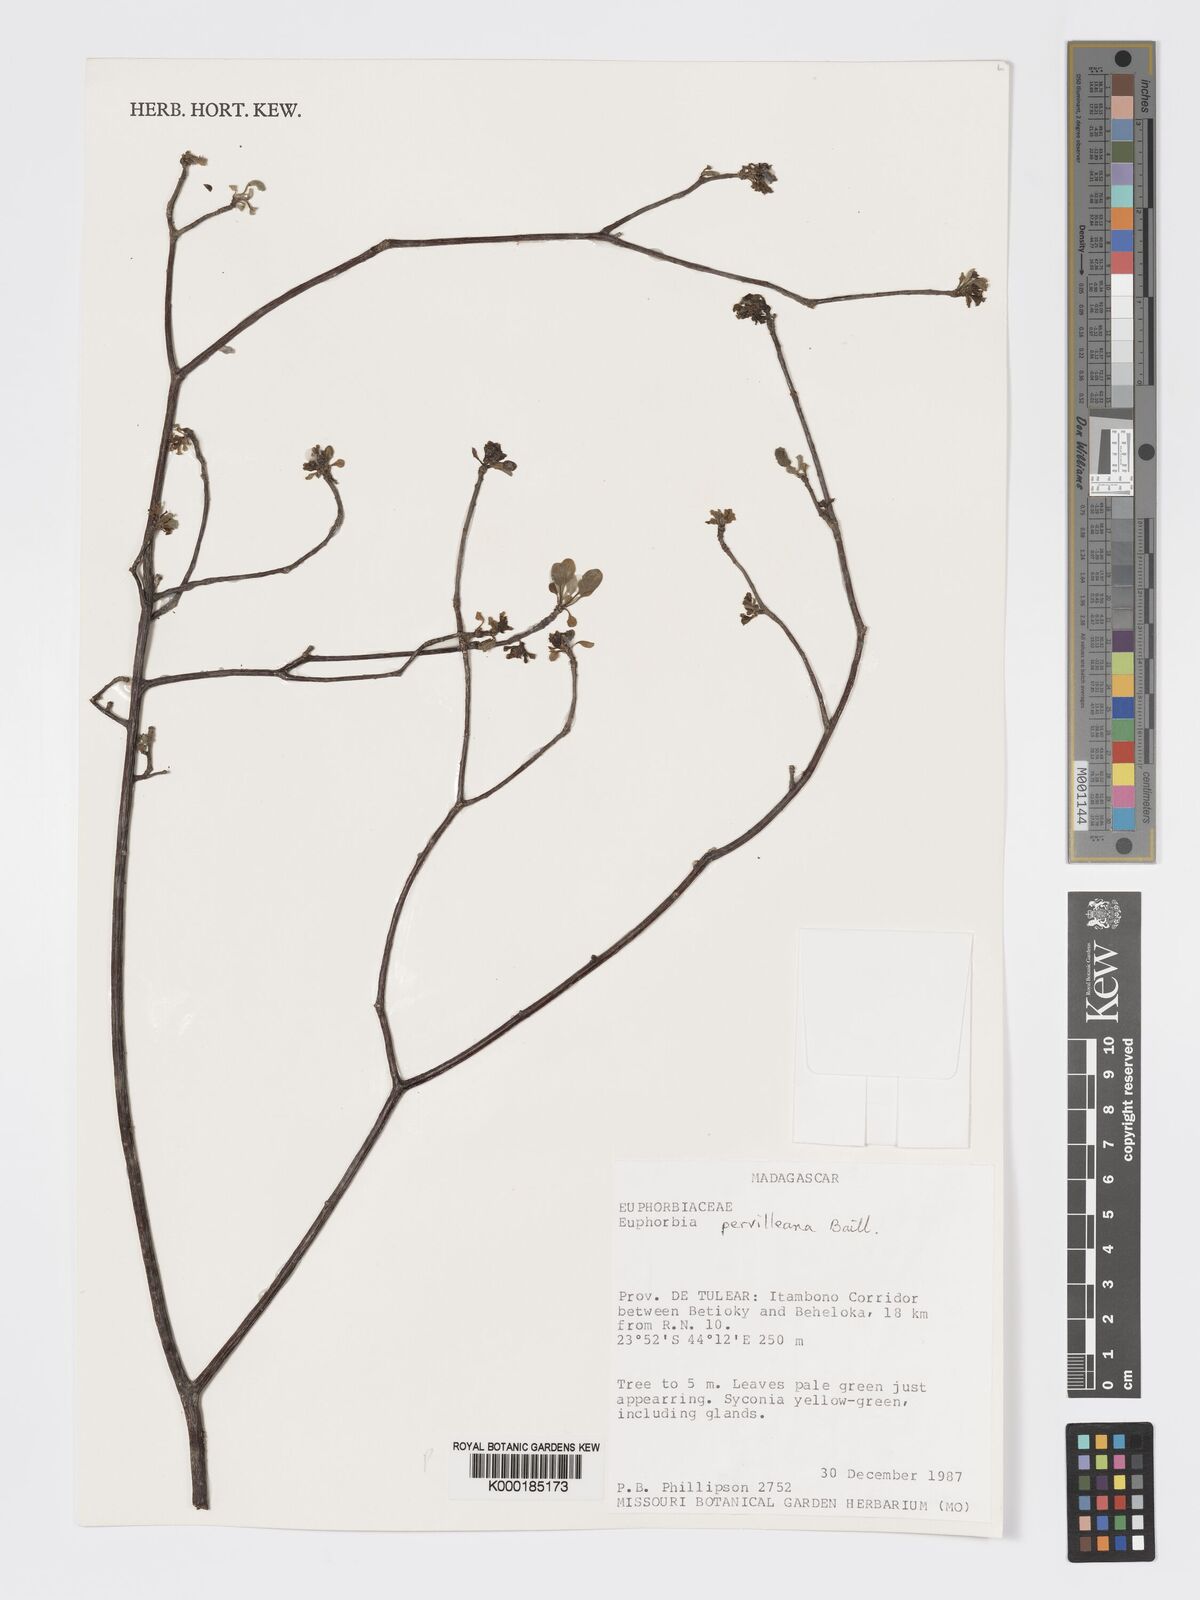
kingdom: Plantae
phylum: Tracheophyta
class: Magnoliopsida
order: Malpighiales
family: Euphorbiaceae
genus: Euphorbia
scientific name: Euphorbia pervilleana
